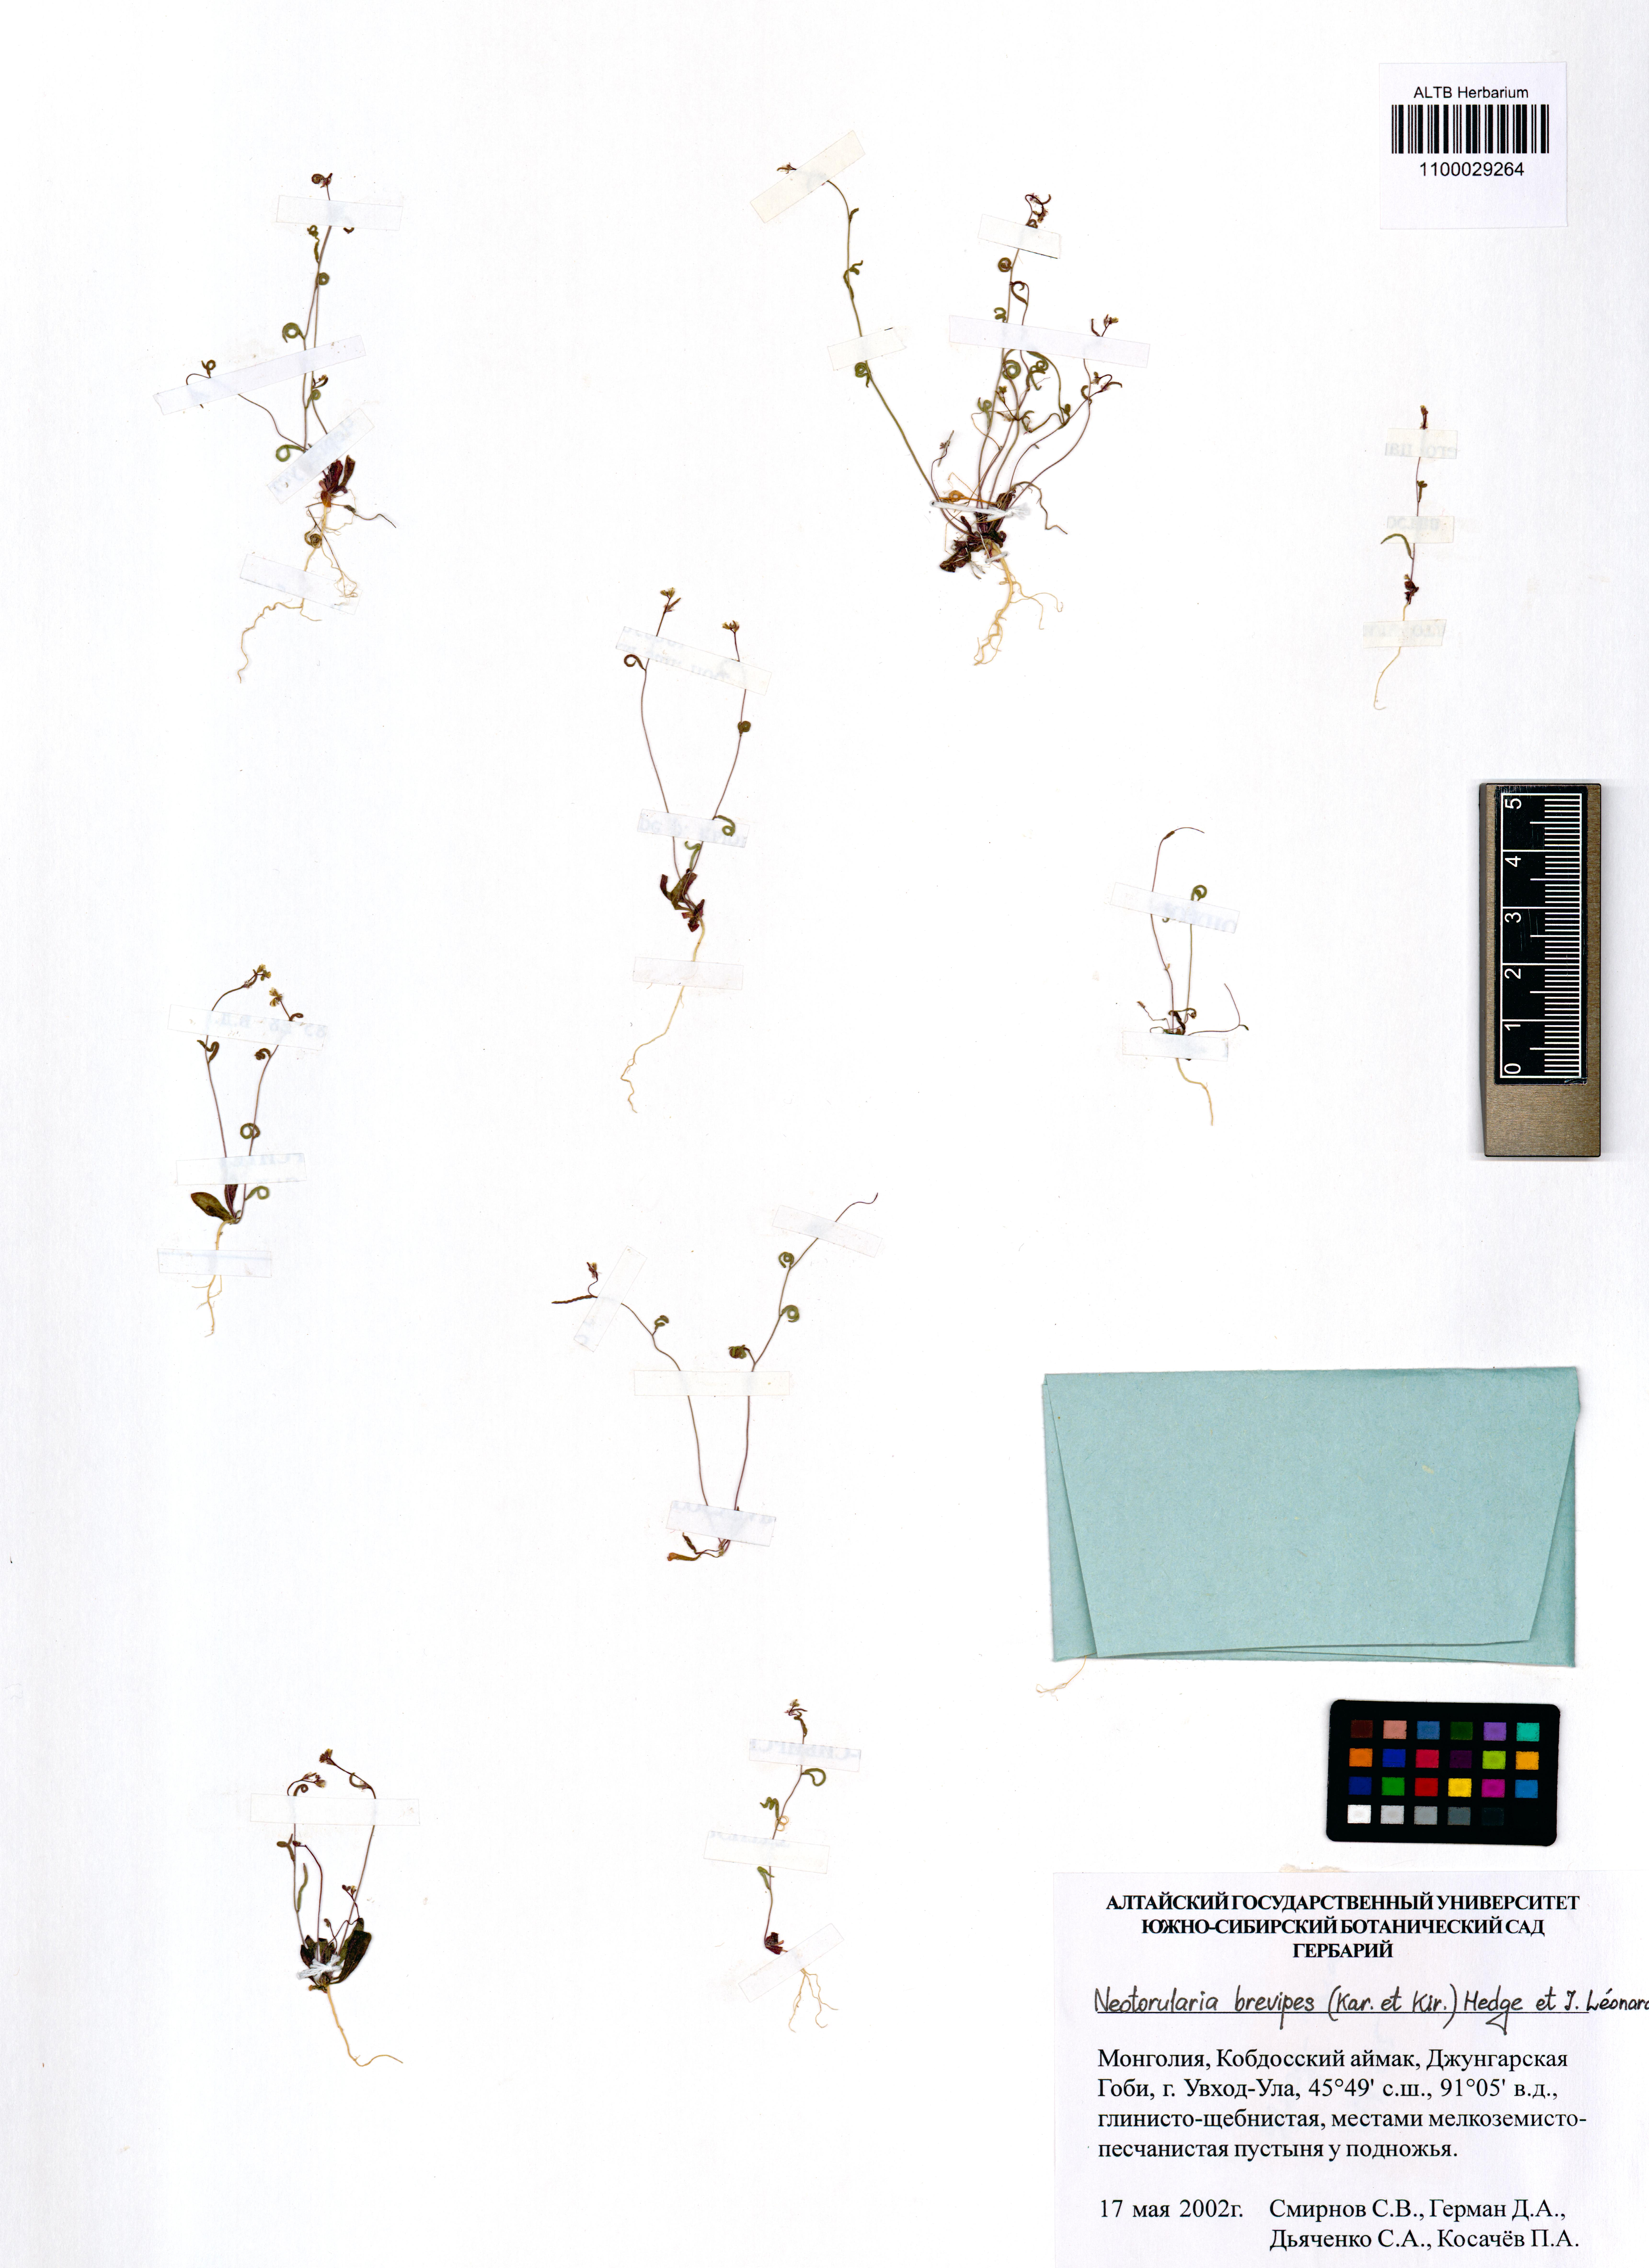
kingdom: Plantae
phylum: Tracheophyta
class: Magnoliopsida
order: Brassicales
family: Brassicaceae
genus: Neotorularia
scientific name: Neotorularia brevipes
